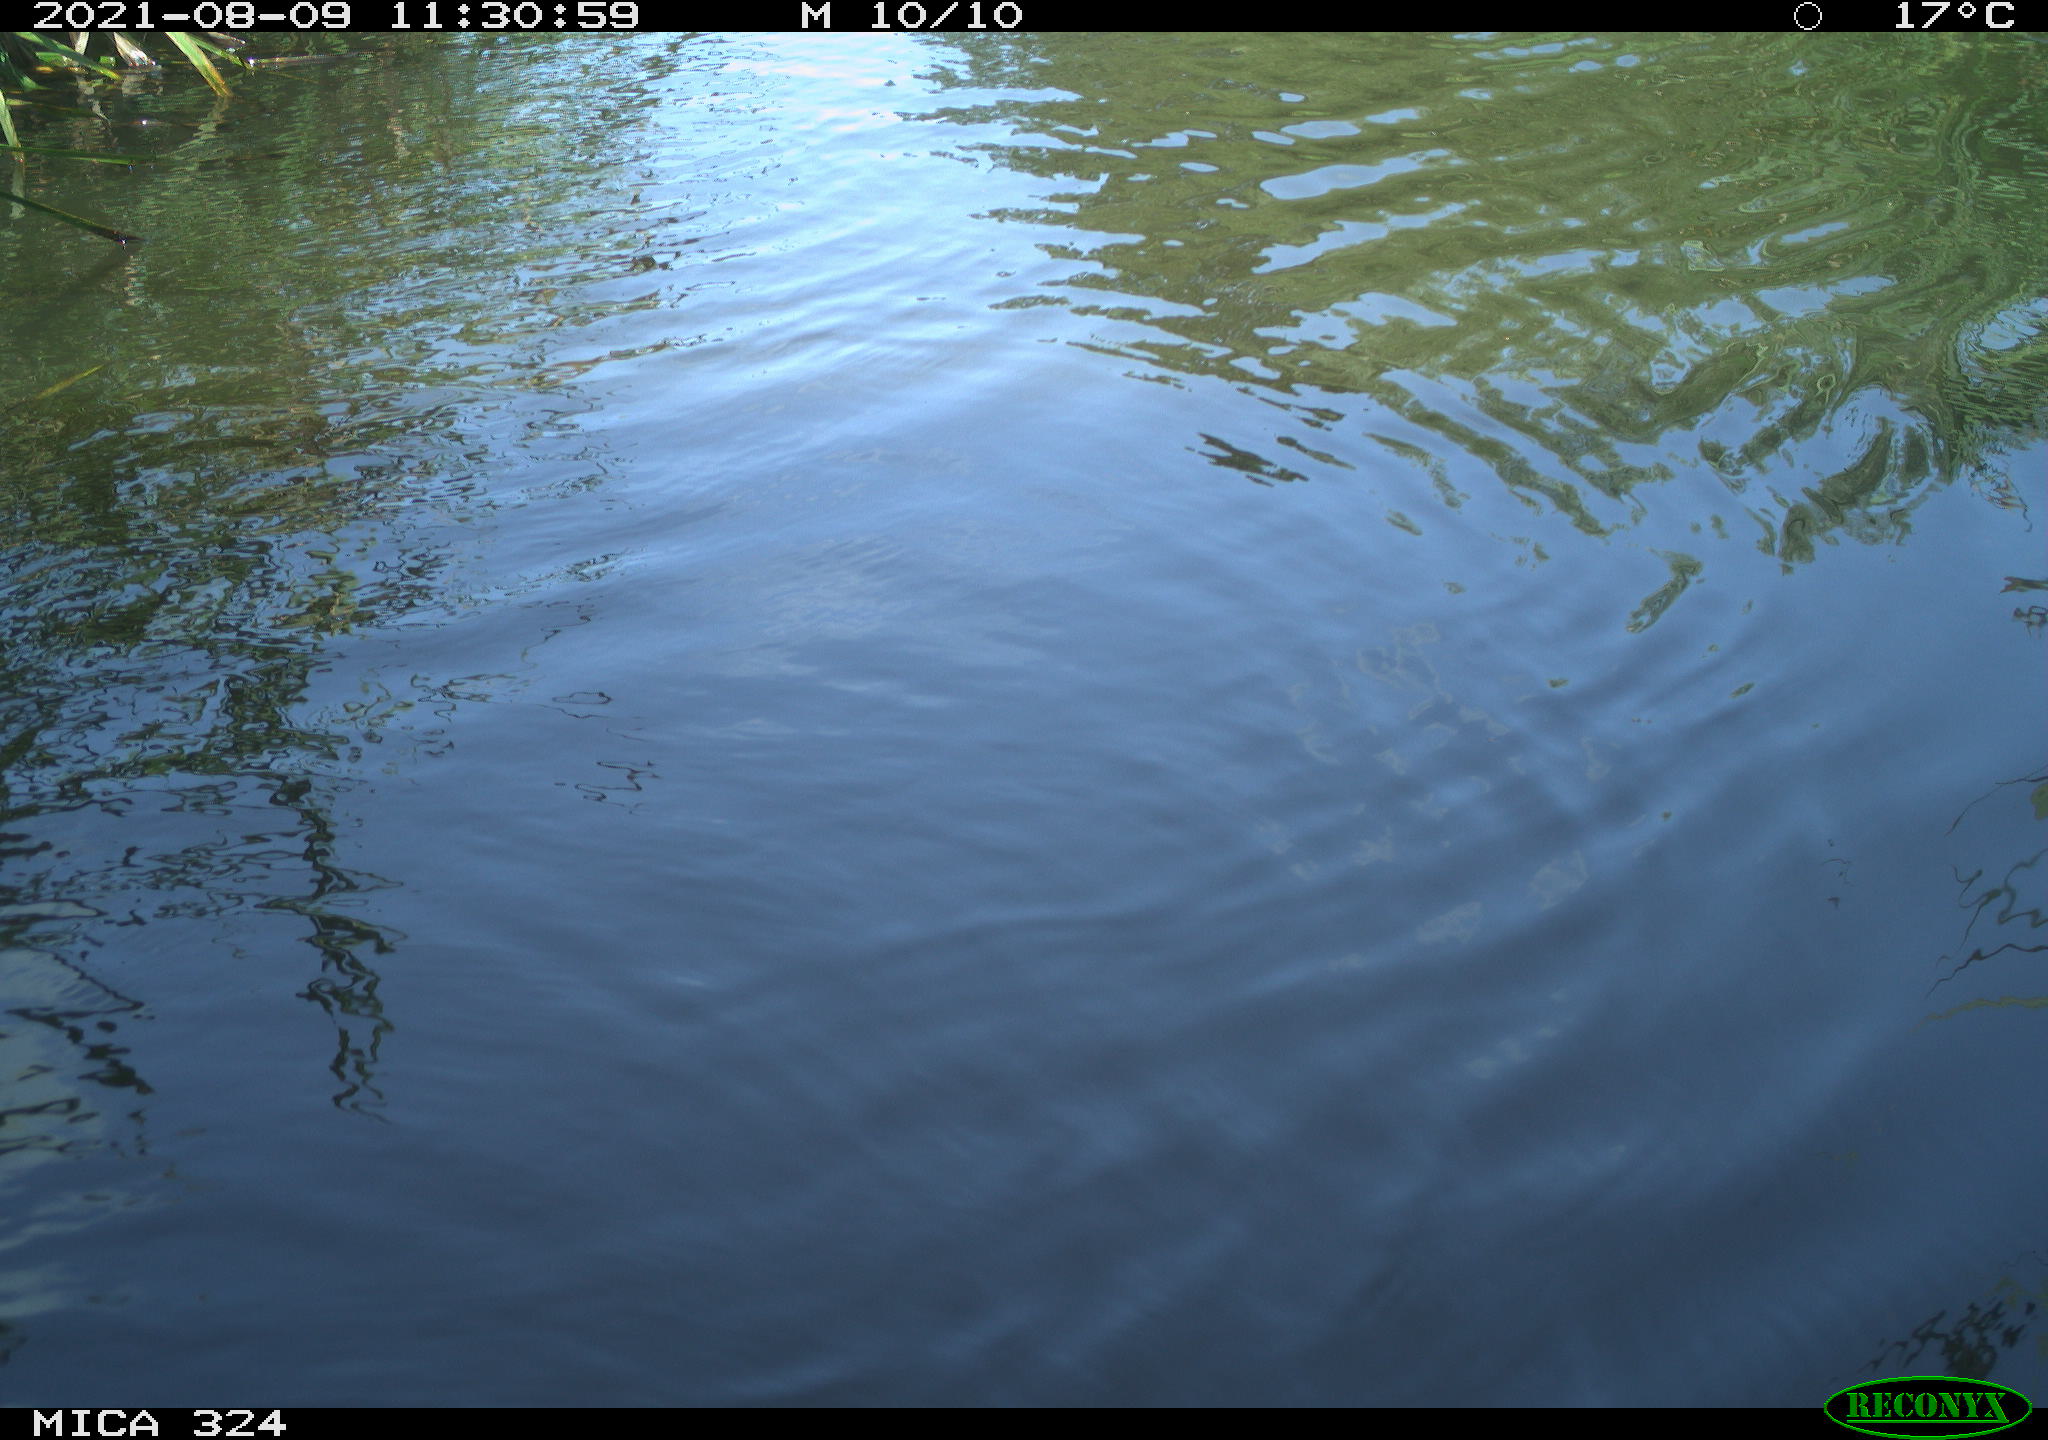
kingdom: Animalia
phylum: Chordata
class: Mammalia
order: Rodentia
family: Cricetidae
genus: Ondatra
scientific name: Ondatra zibethicus
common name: Muskrat
